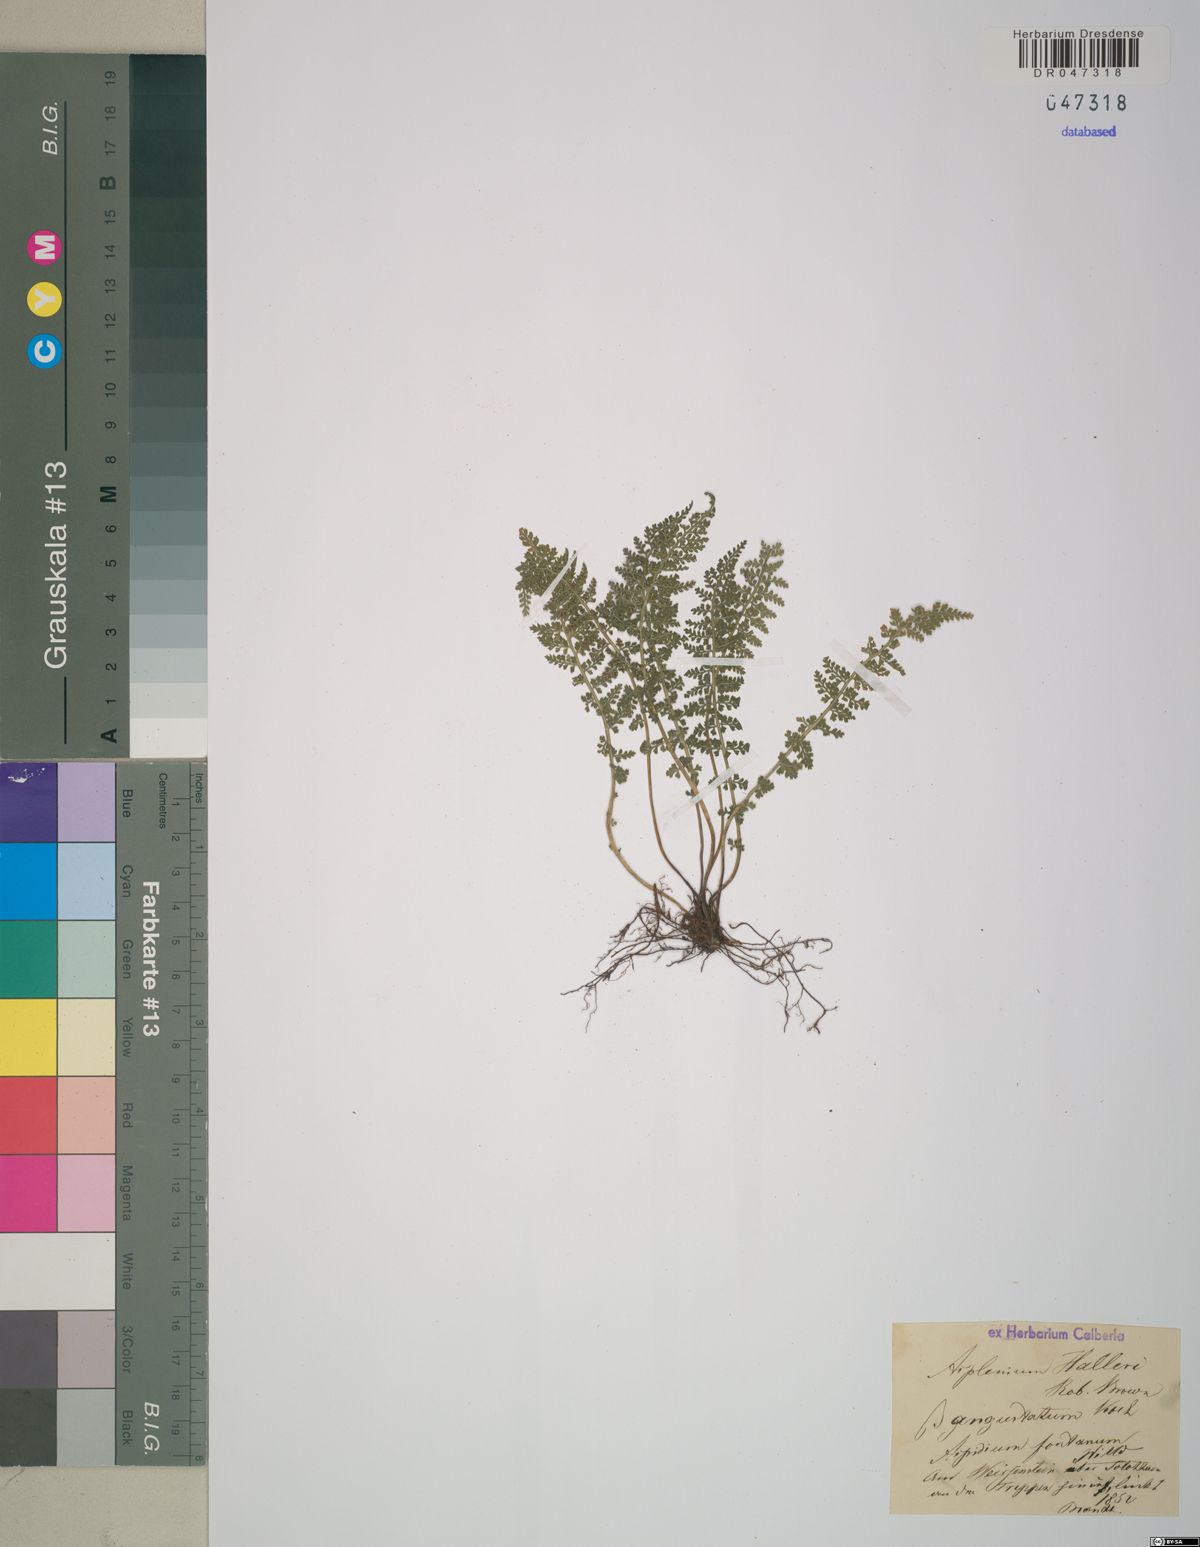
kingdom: Plantae
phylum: Tracheophyta
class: Polypodiopsida
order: Polypodiales
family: Aspleniaceae
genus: Asplenium
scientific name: Asplenium fontanum
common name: Fountain spleenwort
